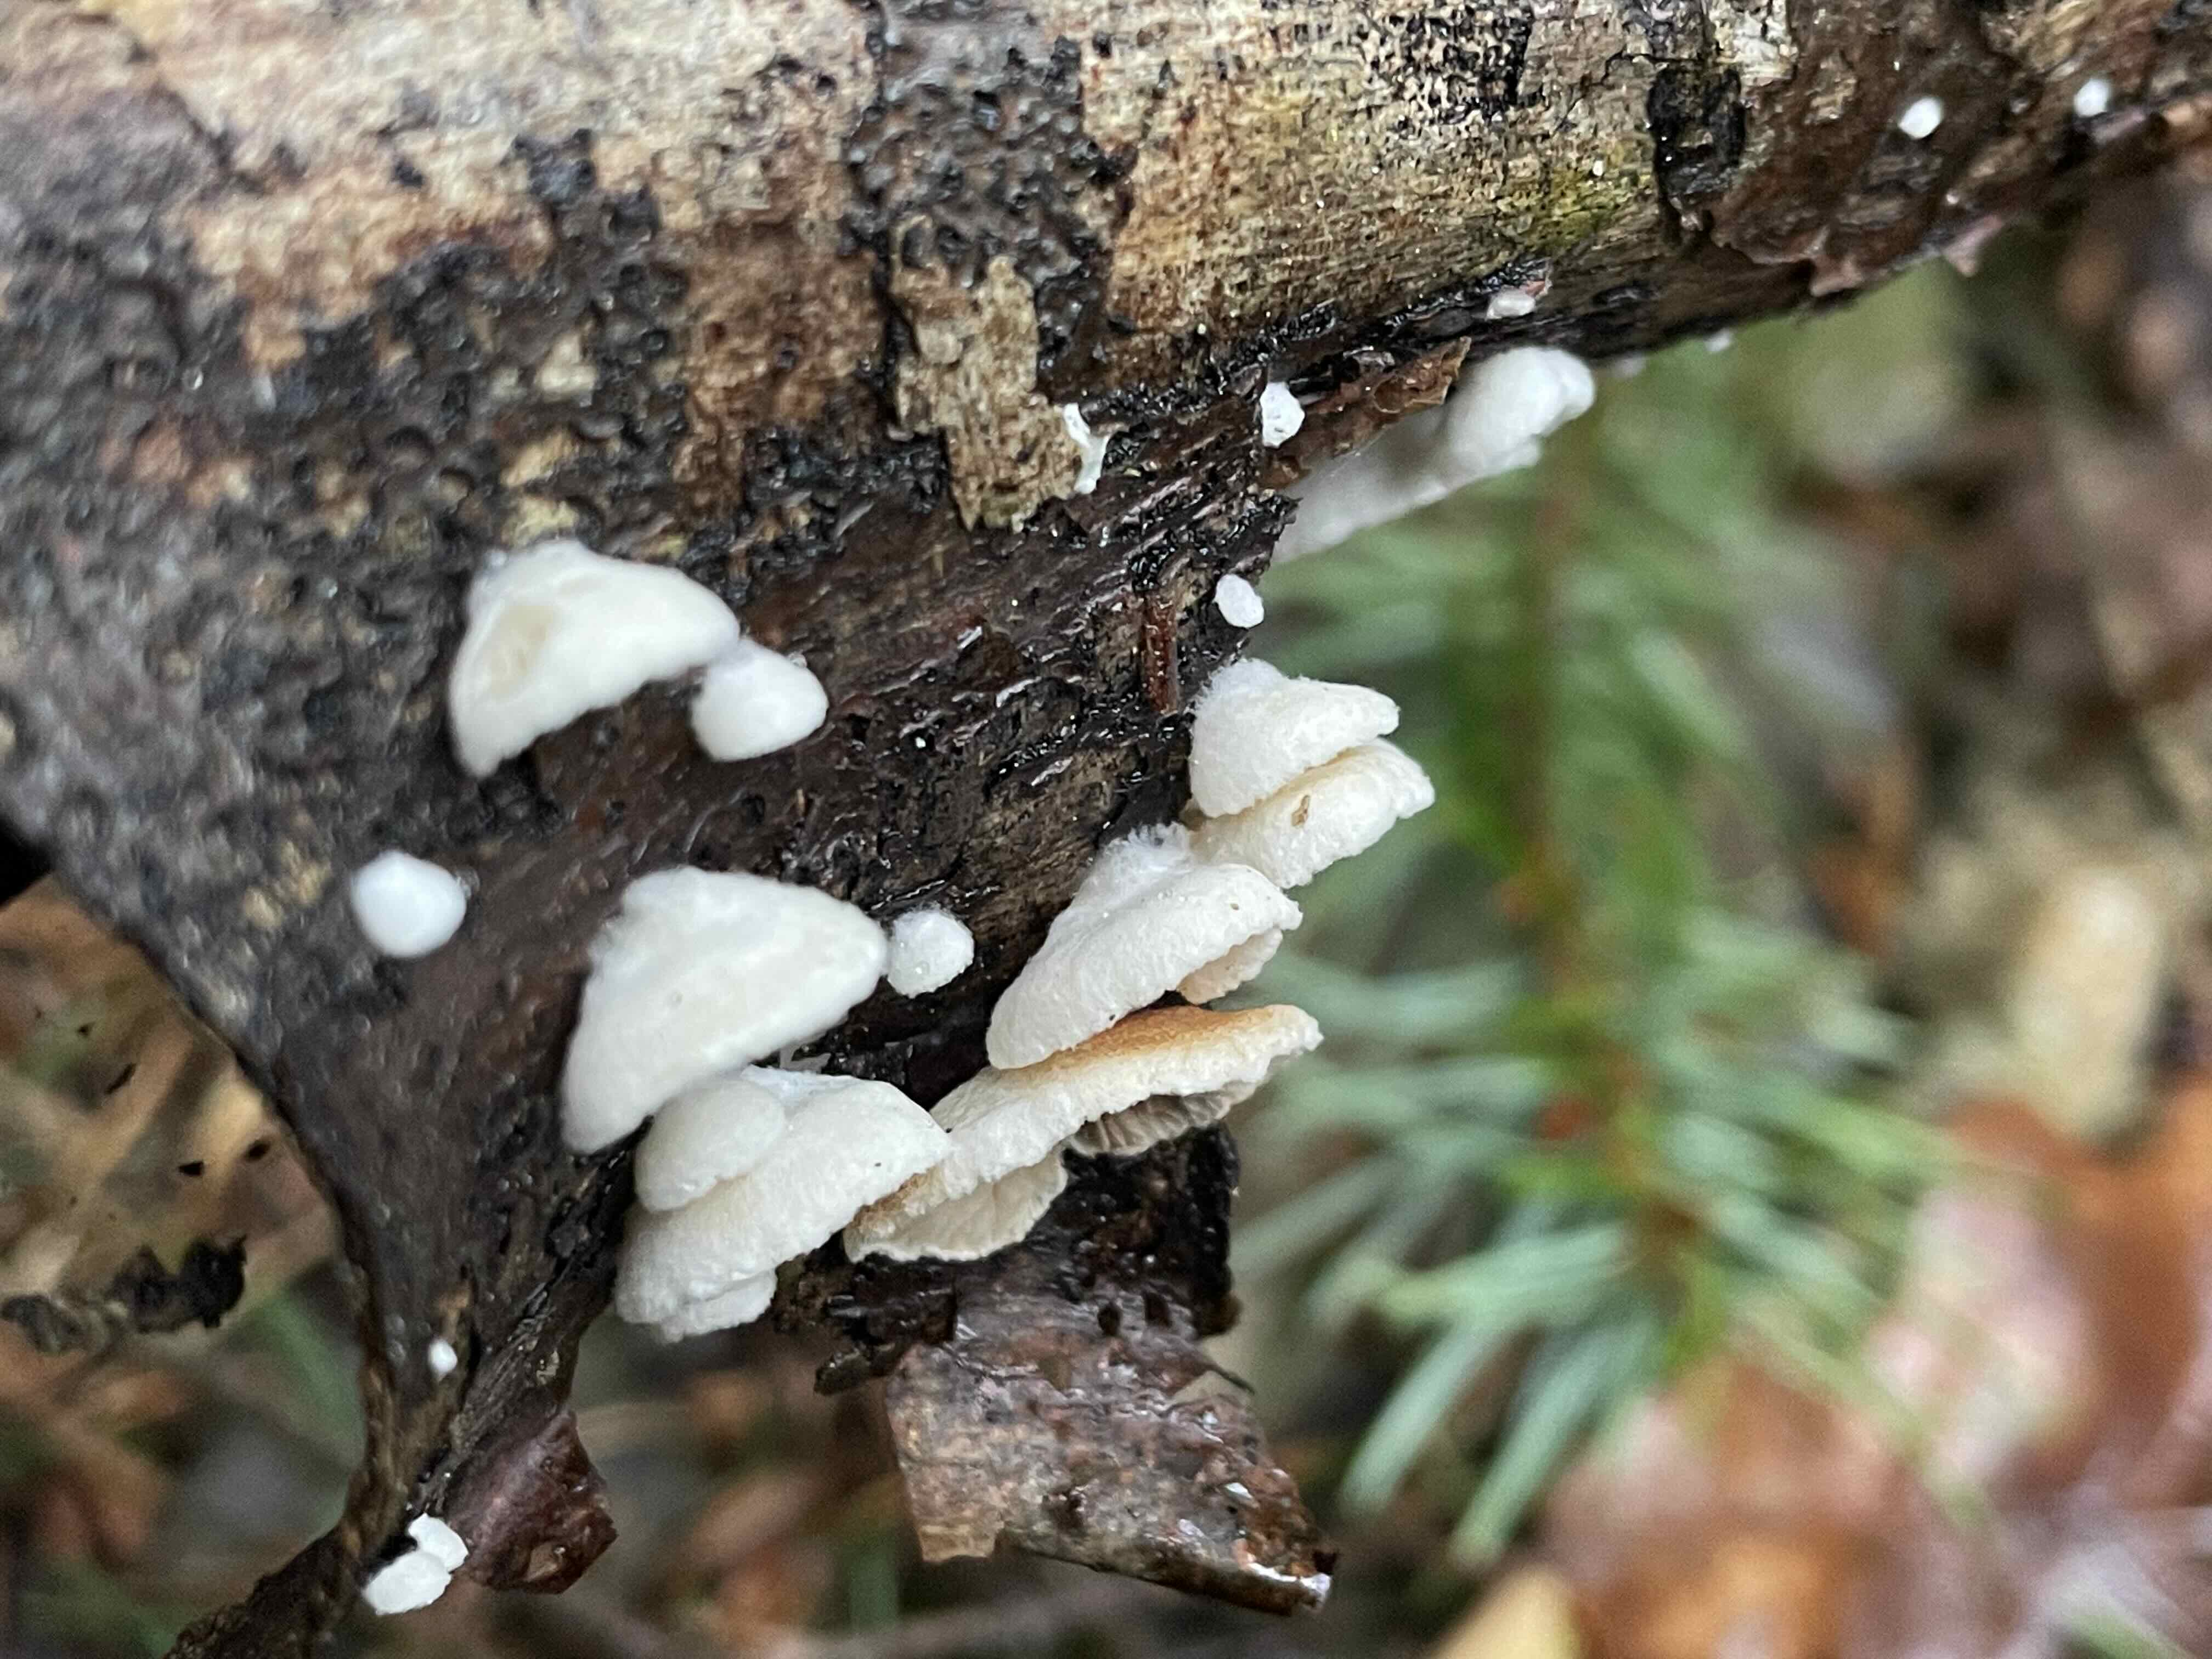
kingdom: Fungi
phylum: Basidiomycota
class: Agaricomycetes
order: Agaricales
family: Crepidotaceae
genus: Crepidotus
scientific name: Crepidotus
